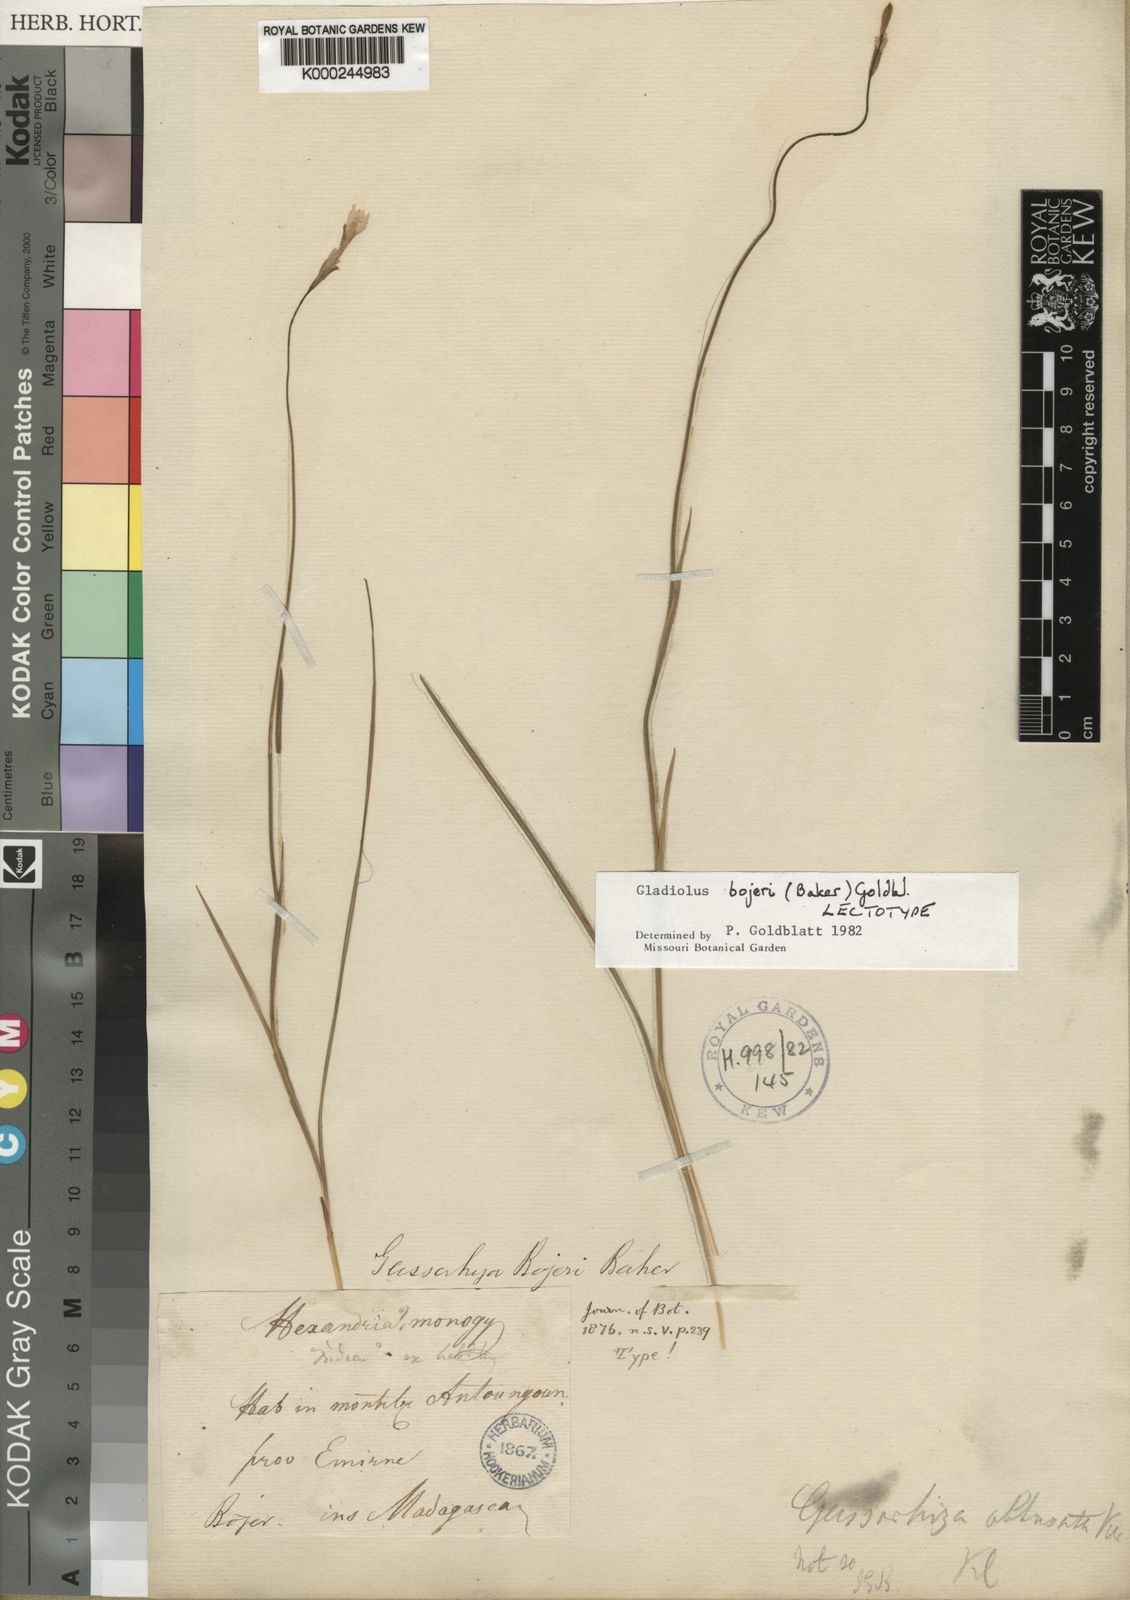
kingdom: Plantae
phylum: Tracheophyta
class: Liliopsida
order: Asparagales
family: Iridaceae
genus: Gladiolus
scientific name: Gladiolus bojeri
